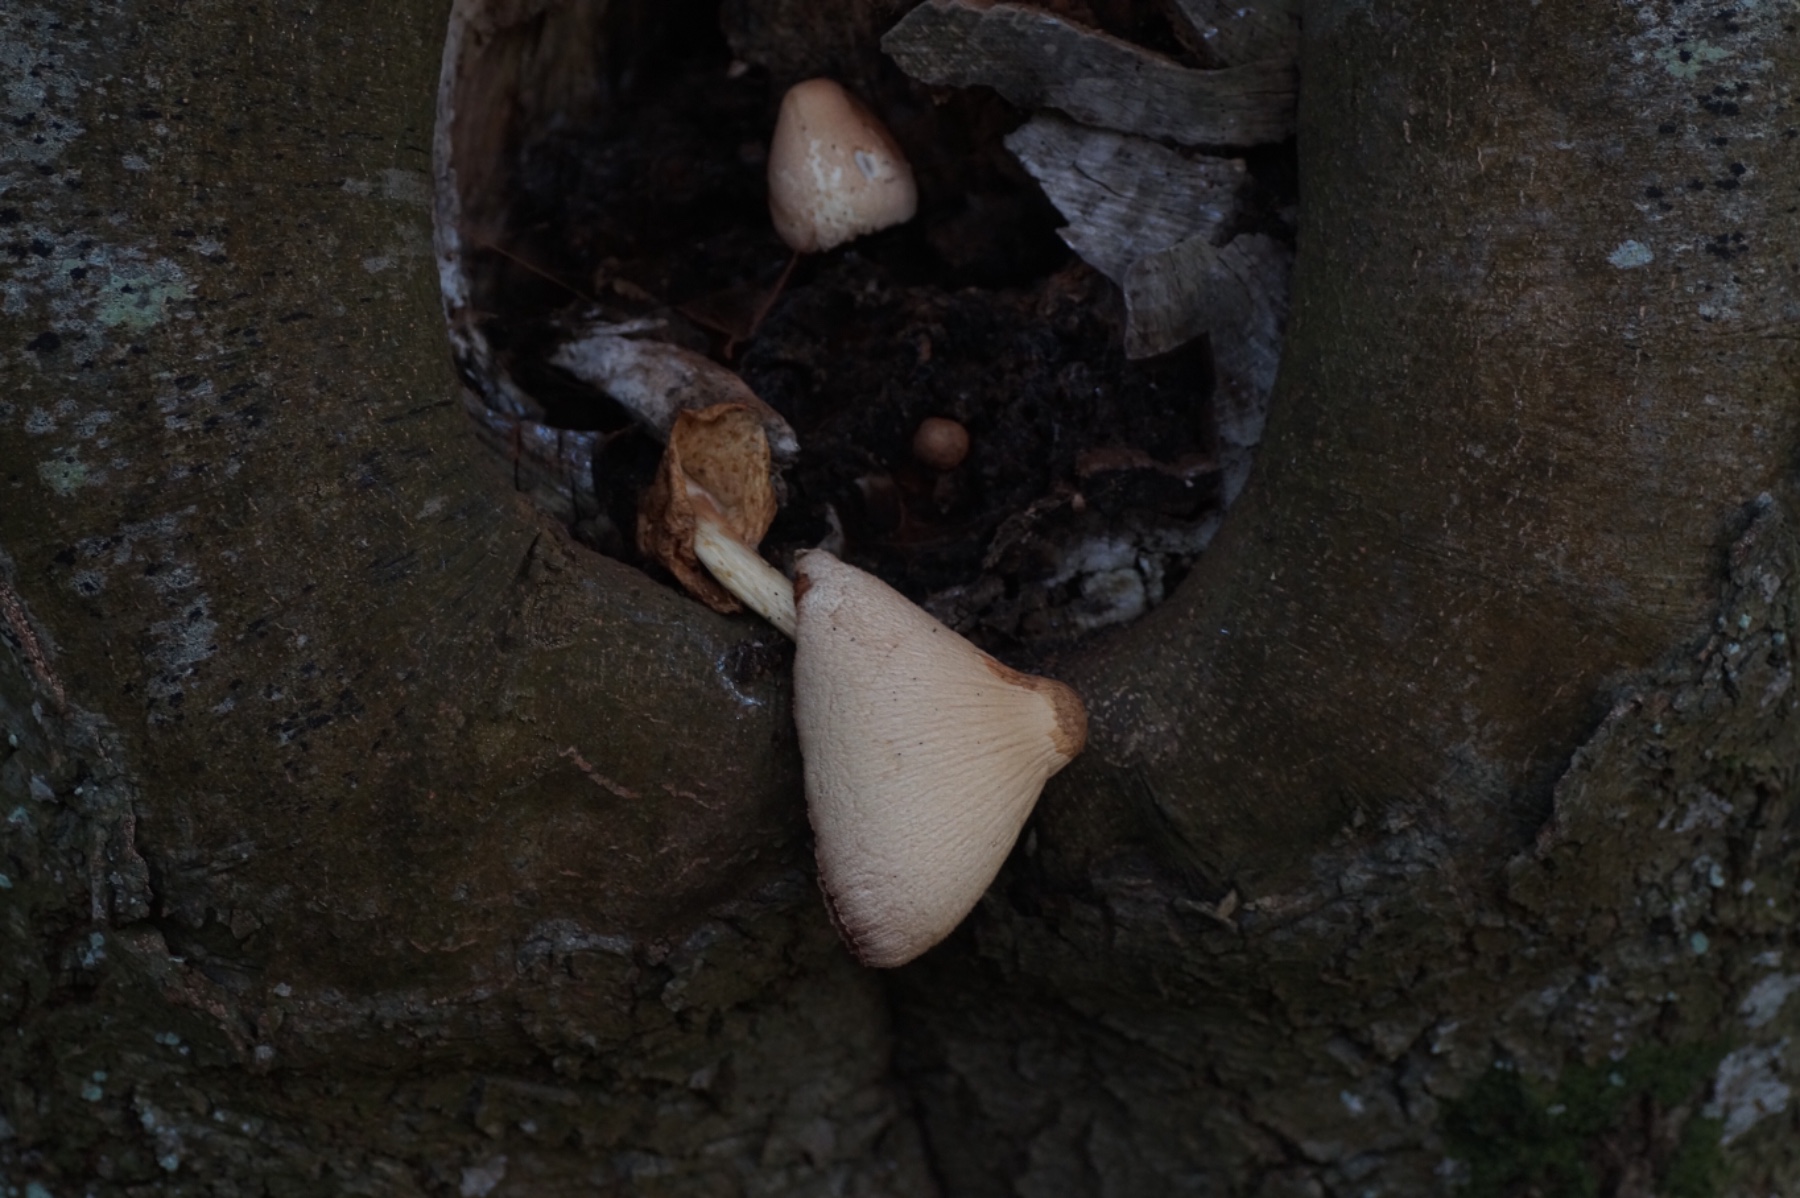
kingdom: Fungi
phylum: Basidiomycota
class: Agaricomycetes
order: Agaricales
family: Pluteaceae
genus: Volvariella
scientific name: Volvariella bombycina
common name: silkehåret posesvamp
